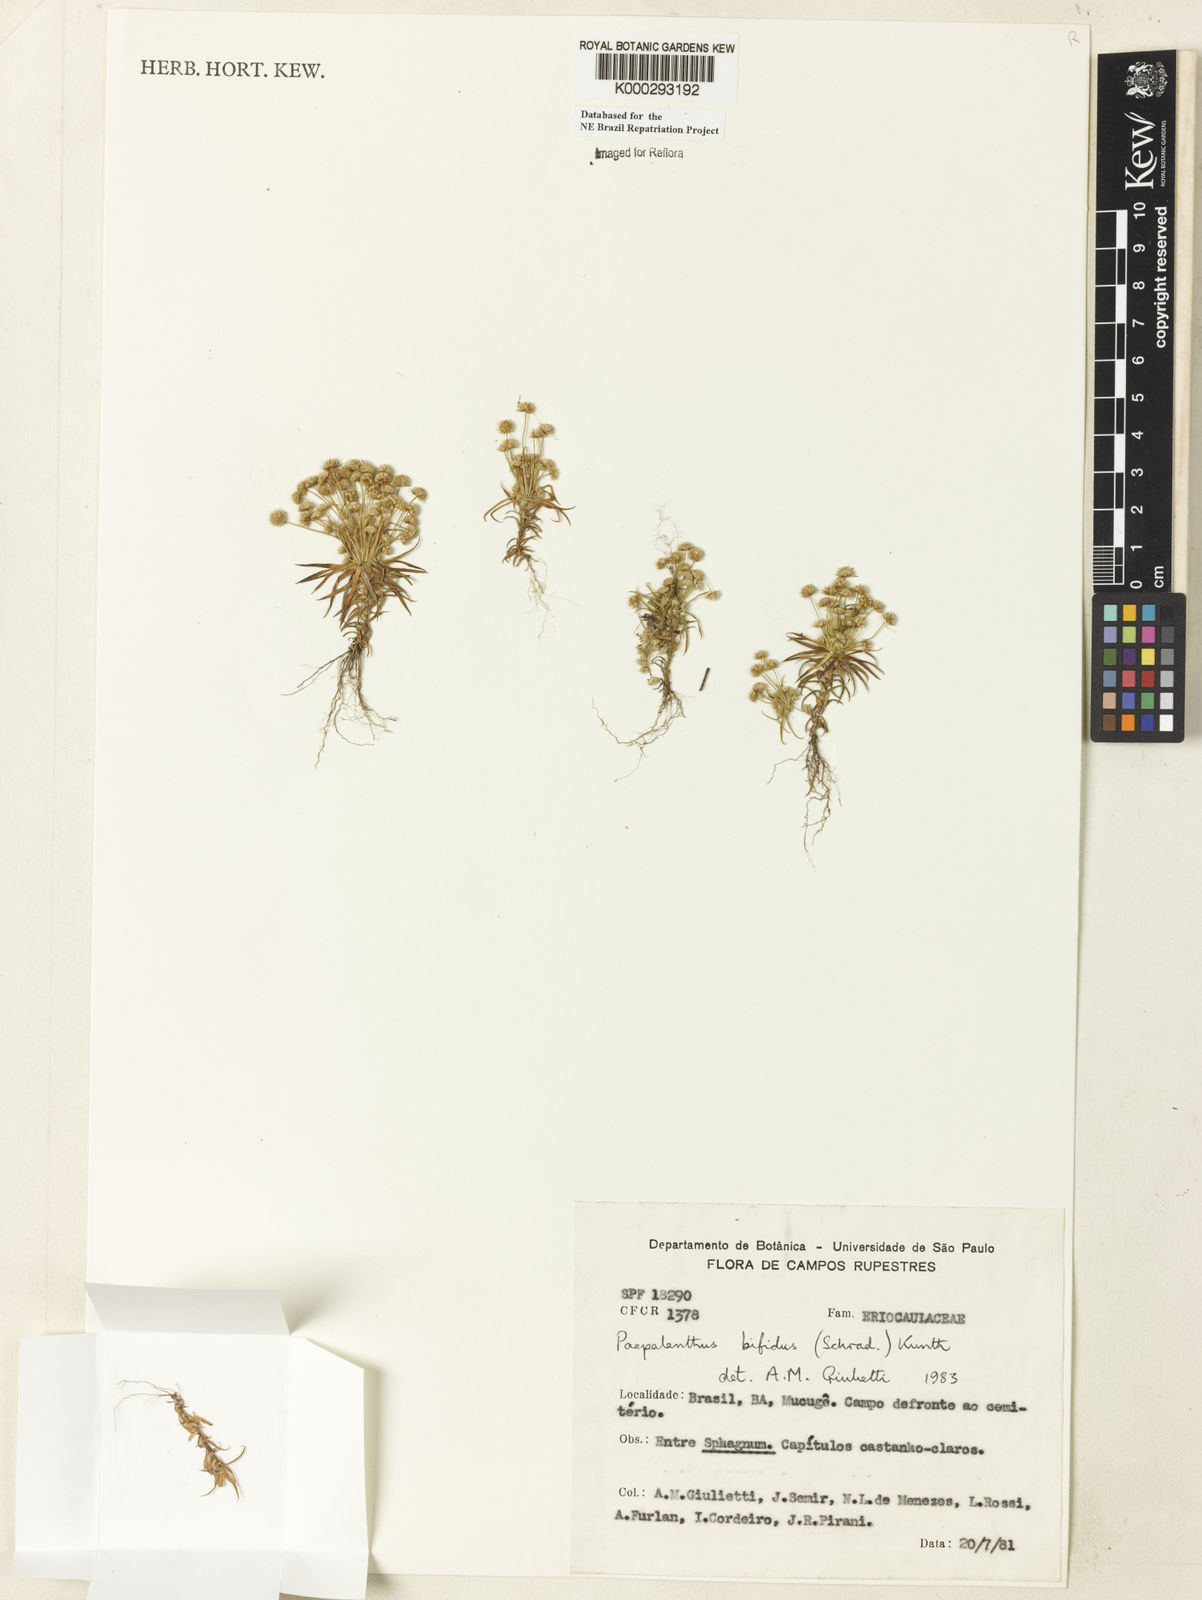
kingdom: Plantae
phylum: Tracheophyta
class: Liliopsida
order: Poales
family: Eriocaulaceae
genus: Paepalanthus
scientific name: Paepalanthus bifidus
